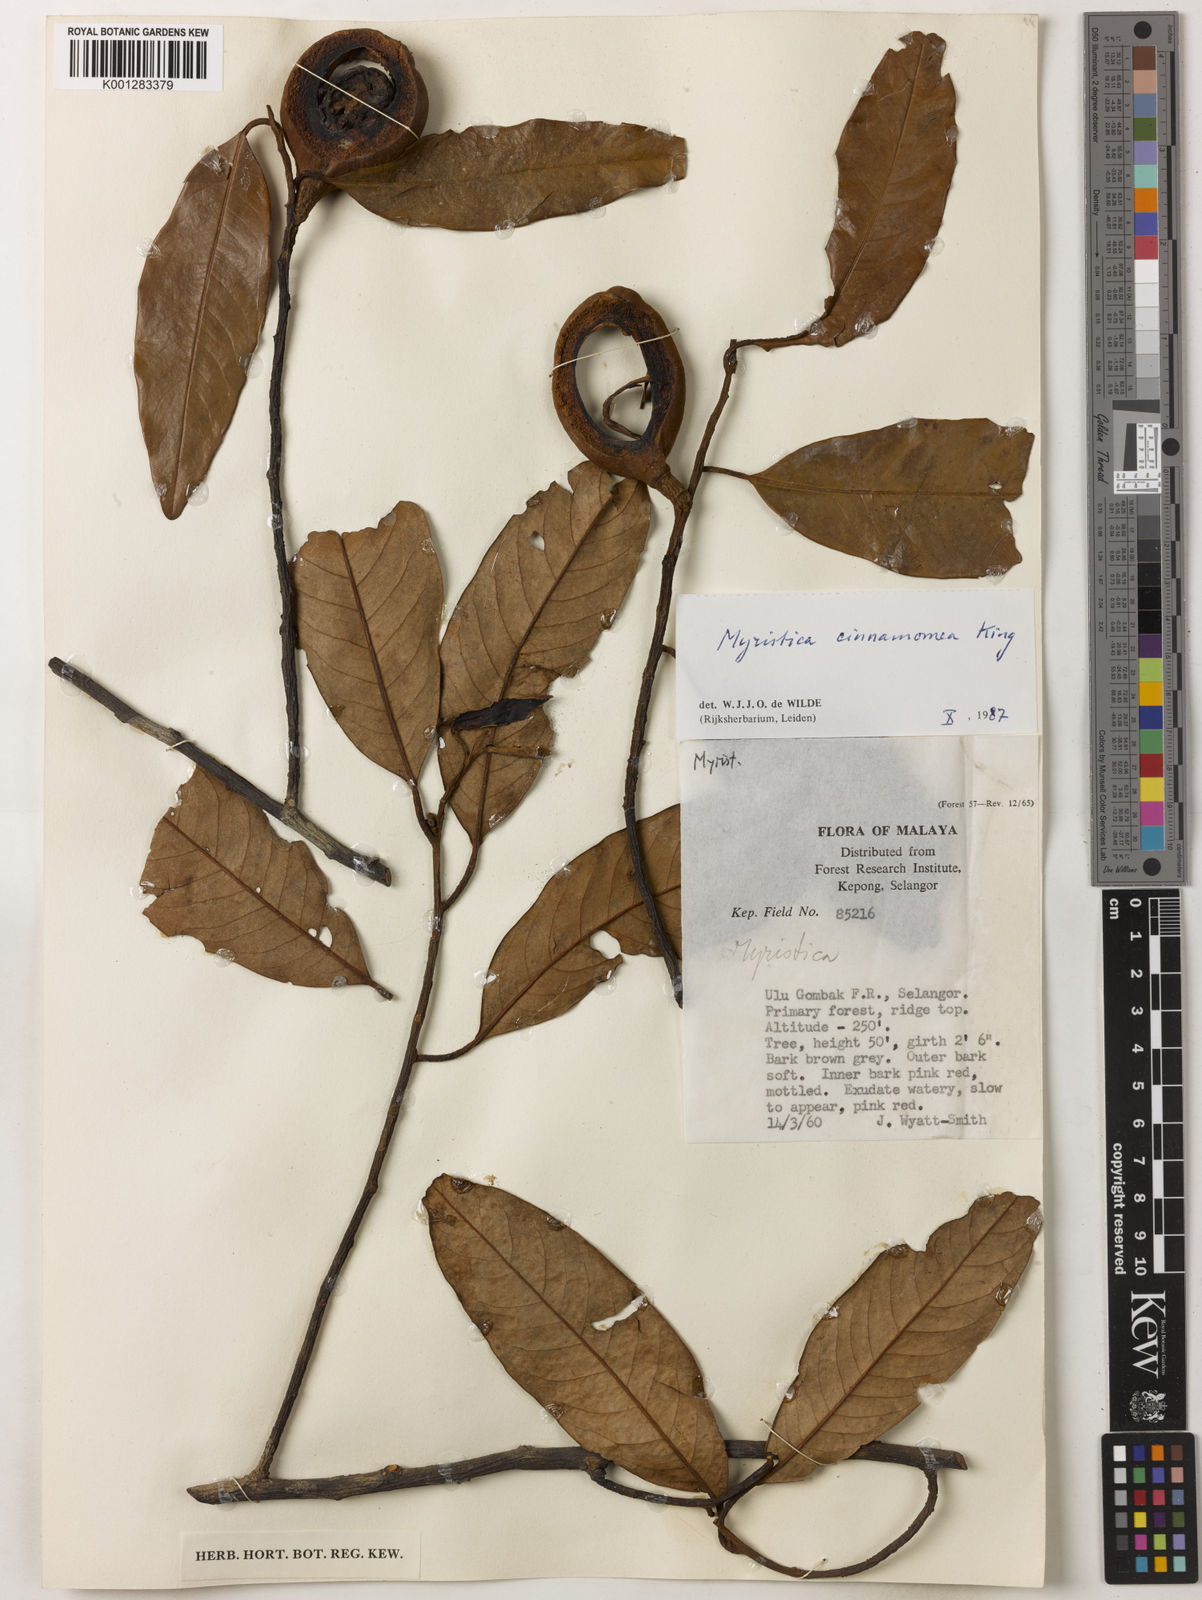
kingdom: Plantae
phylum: Tracheophyta
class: Magnoliopsida
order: Magnoliales
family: Myristicaceae
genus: Myristica
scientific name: Myristica cinnamomea
